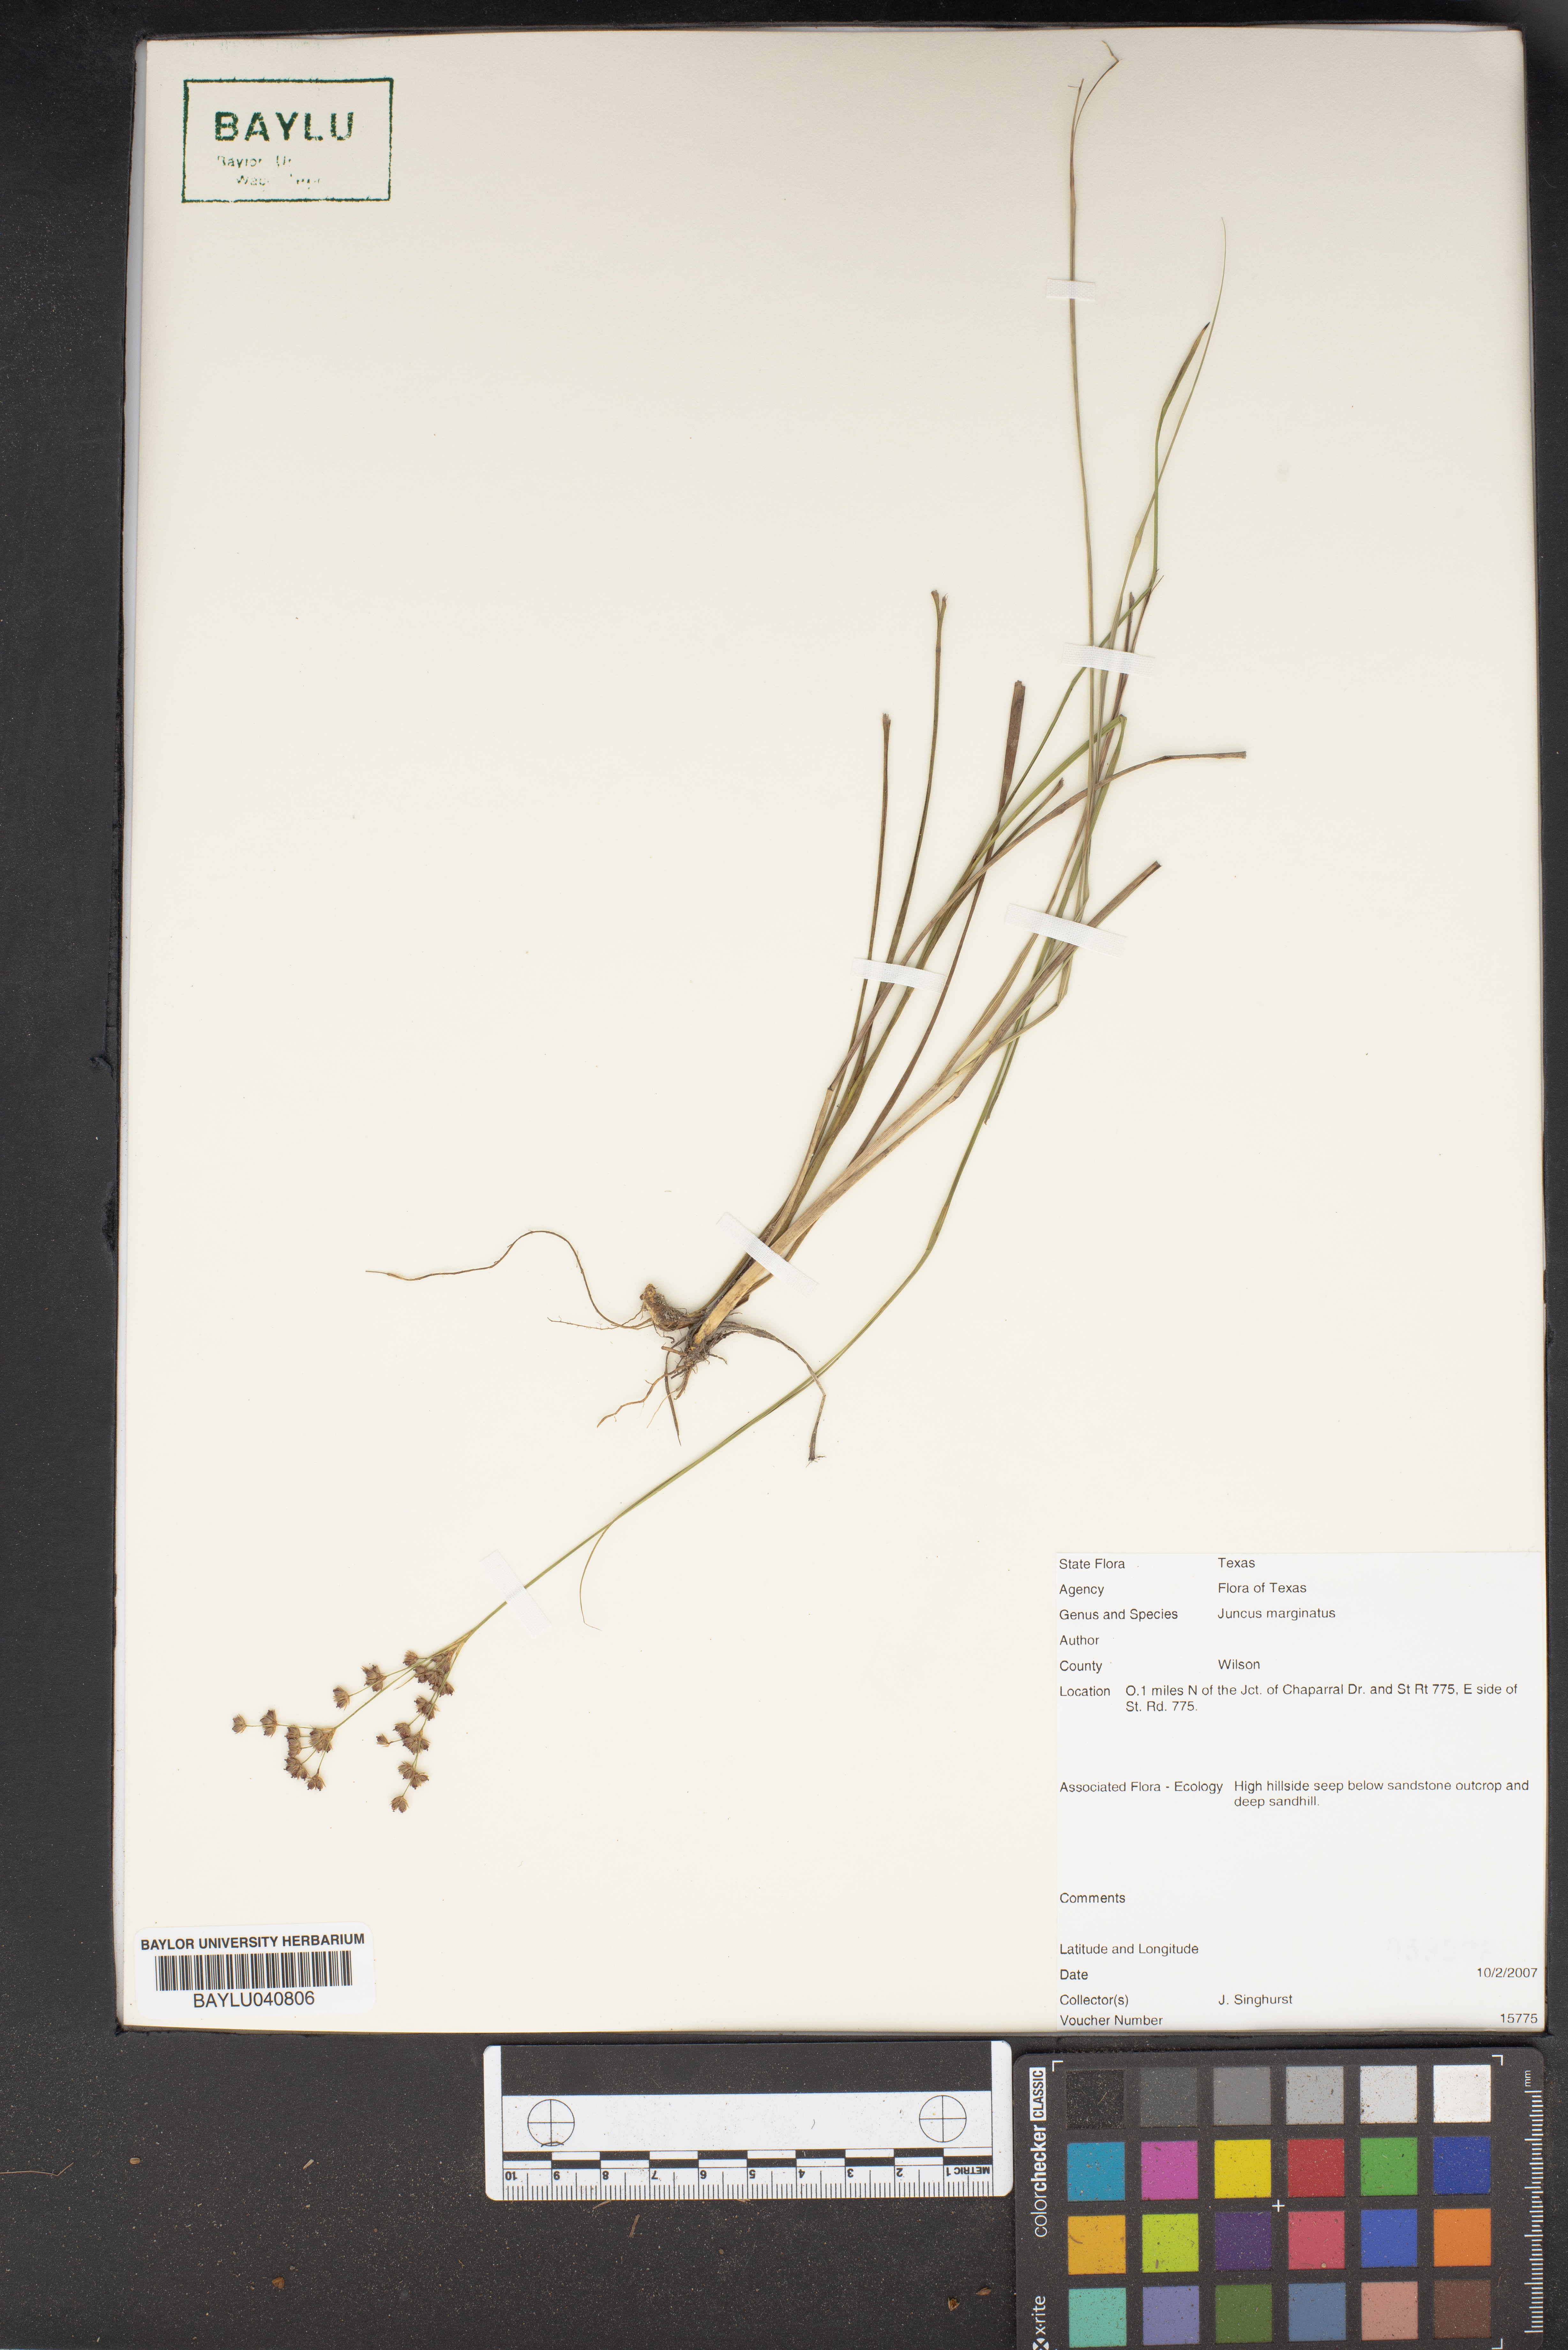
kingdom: Plantae
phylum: Tracheophyta
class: Liliopsida
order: Poales
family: Juncaceae
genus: Juncus
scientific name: Juncus marginatus
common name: Grass-leaf rush
